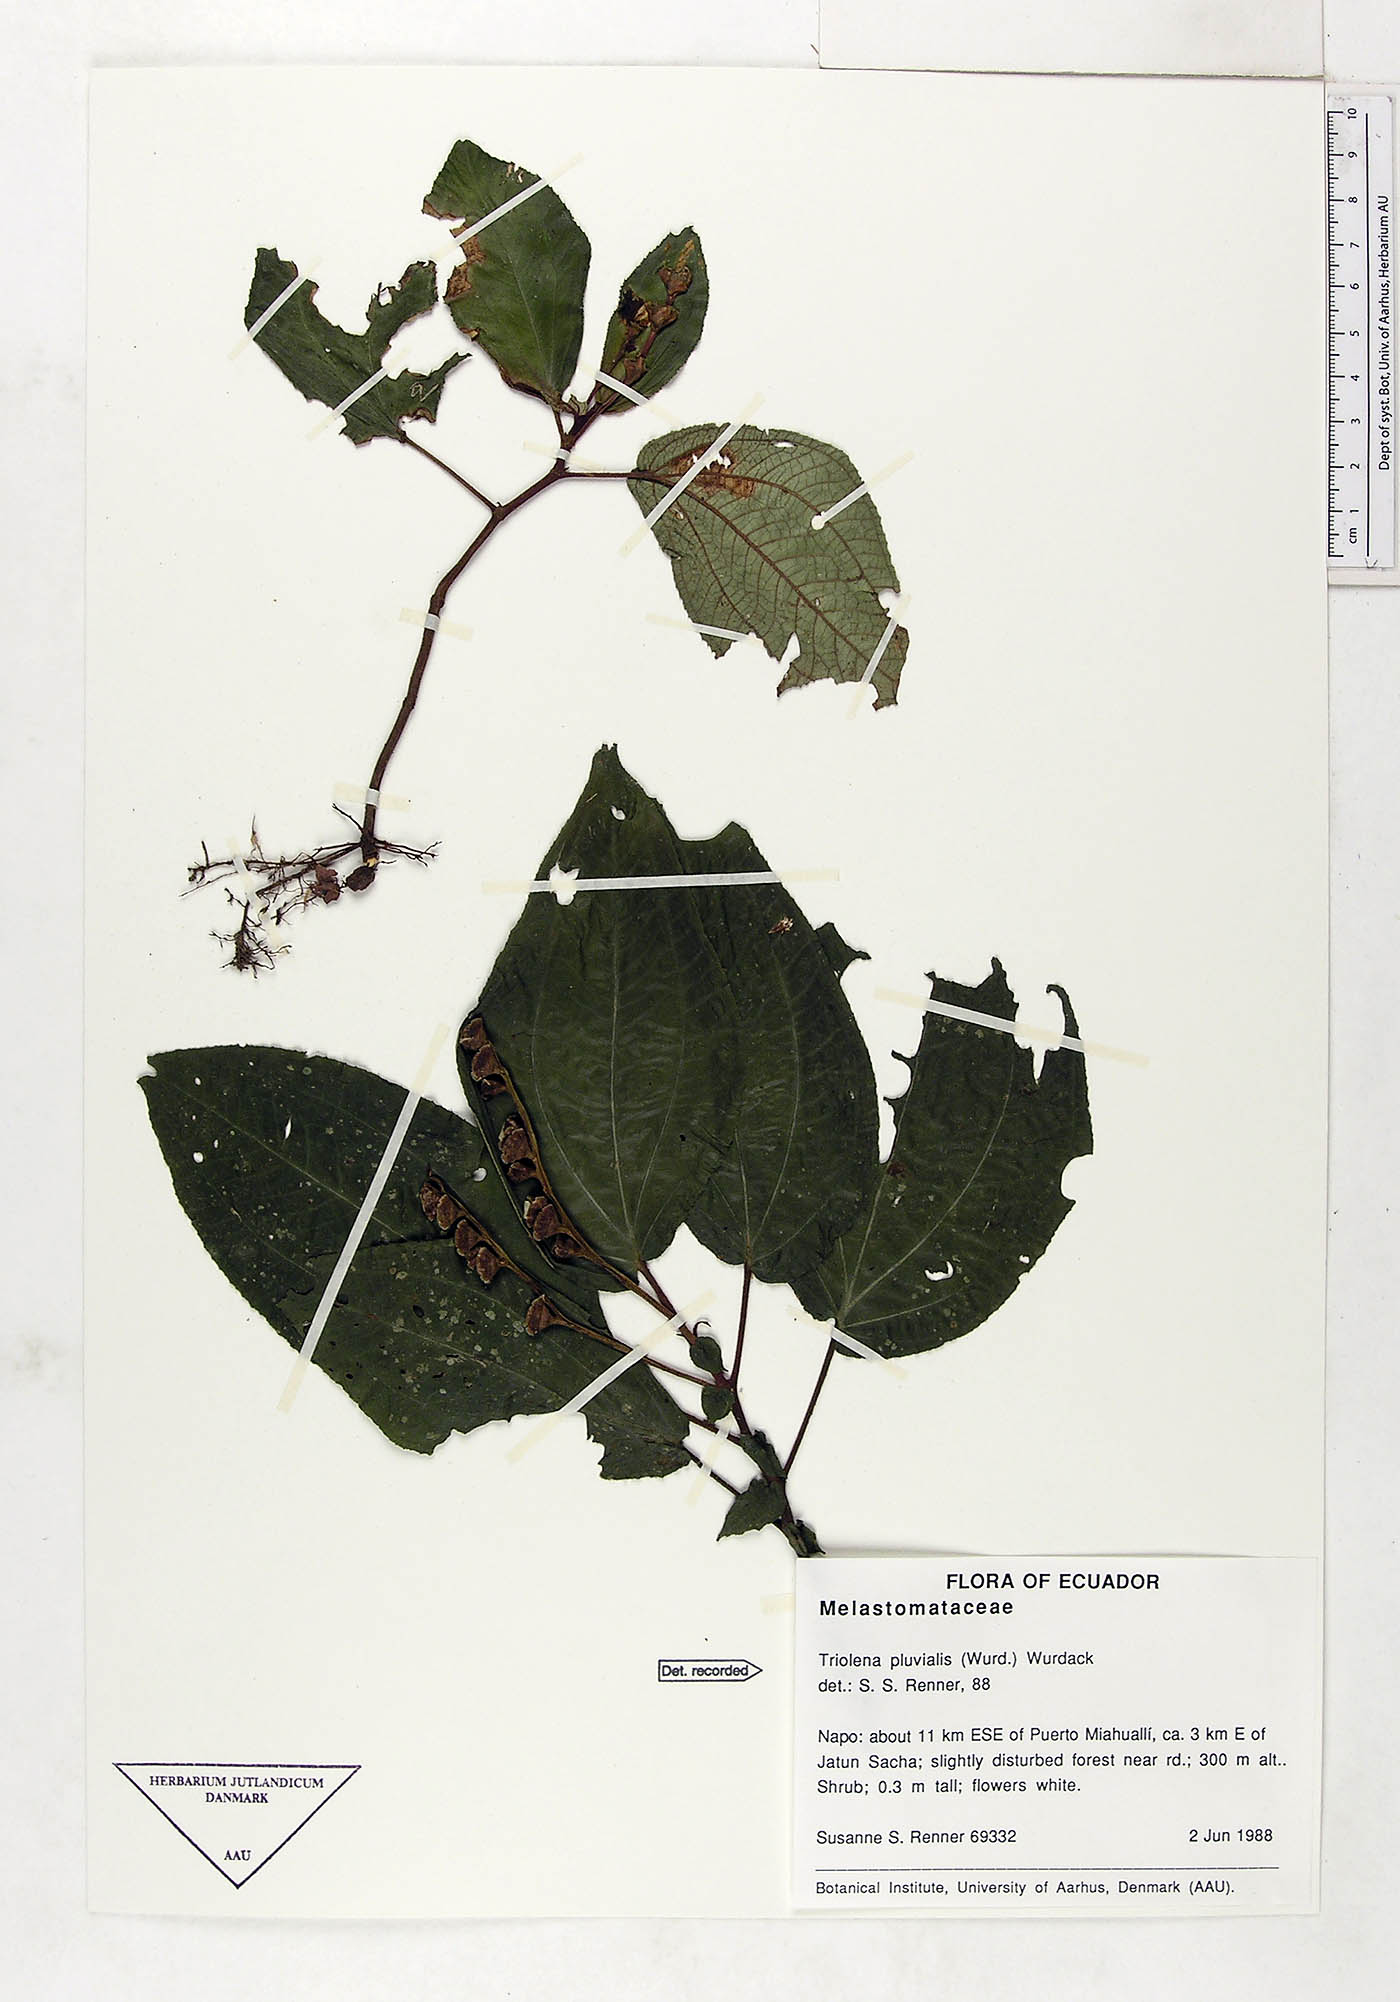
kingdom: Plantae
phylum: Tracheophyta
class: Magnoliopsida
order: Myrtales
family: Melastomataceae
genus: Triolena
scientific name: Triolena pluvialis
